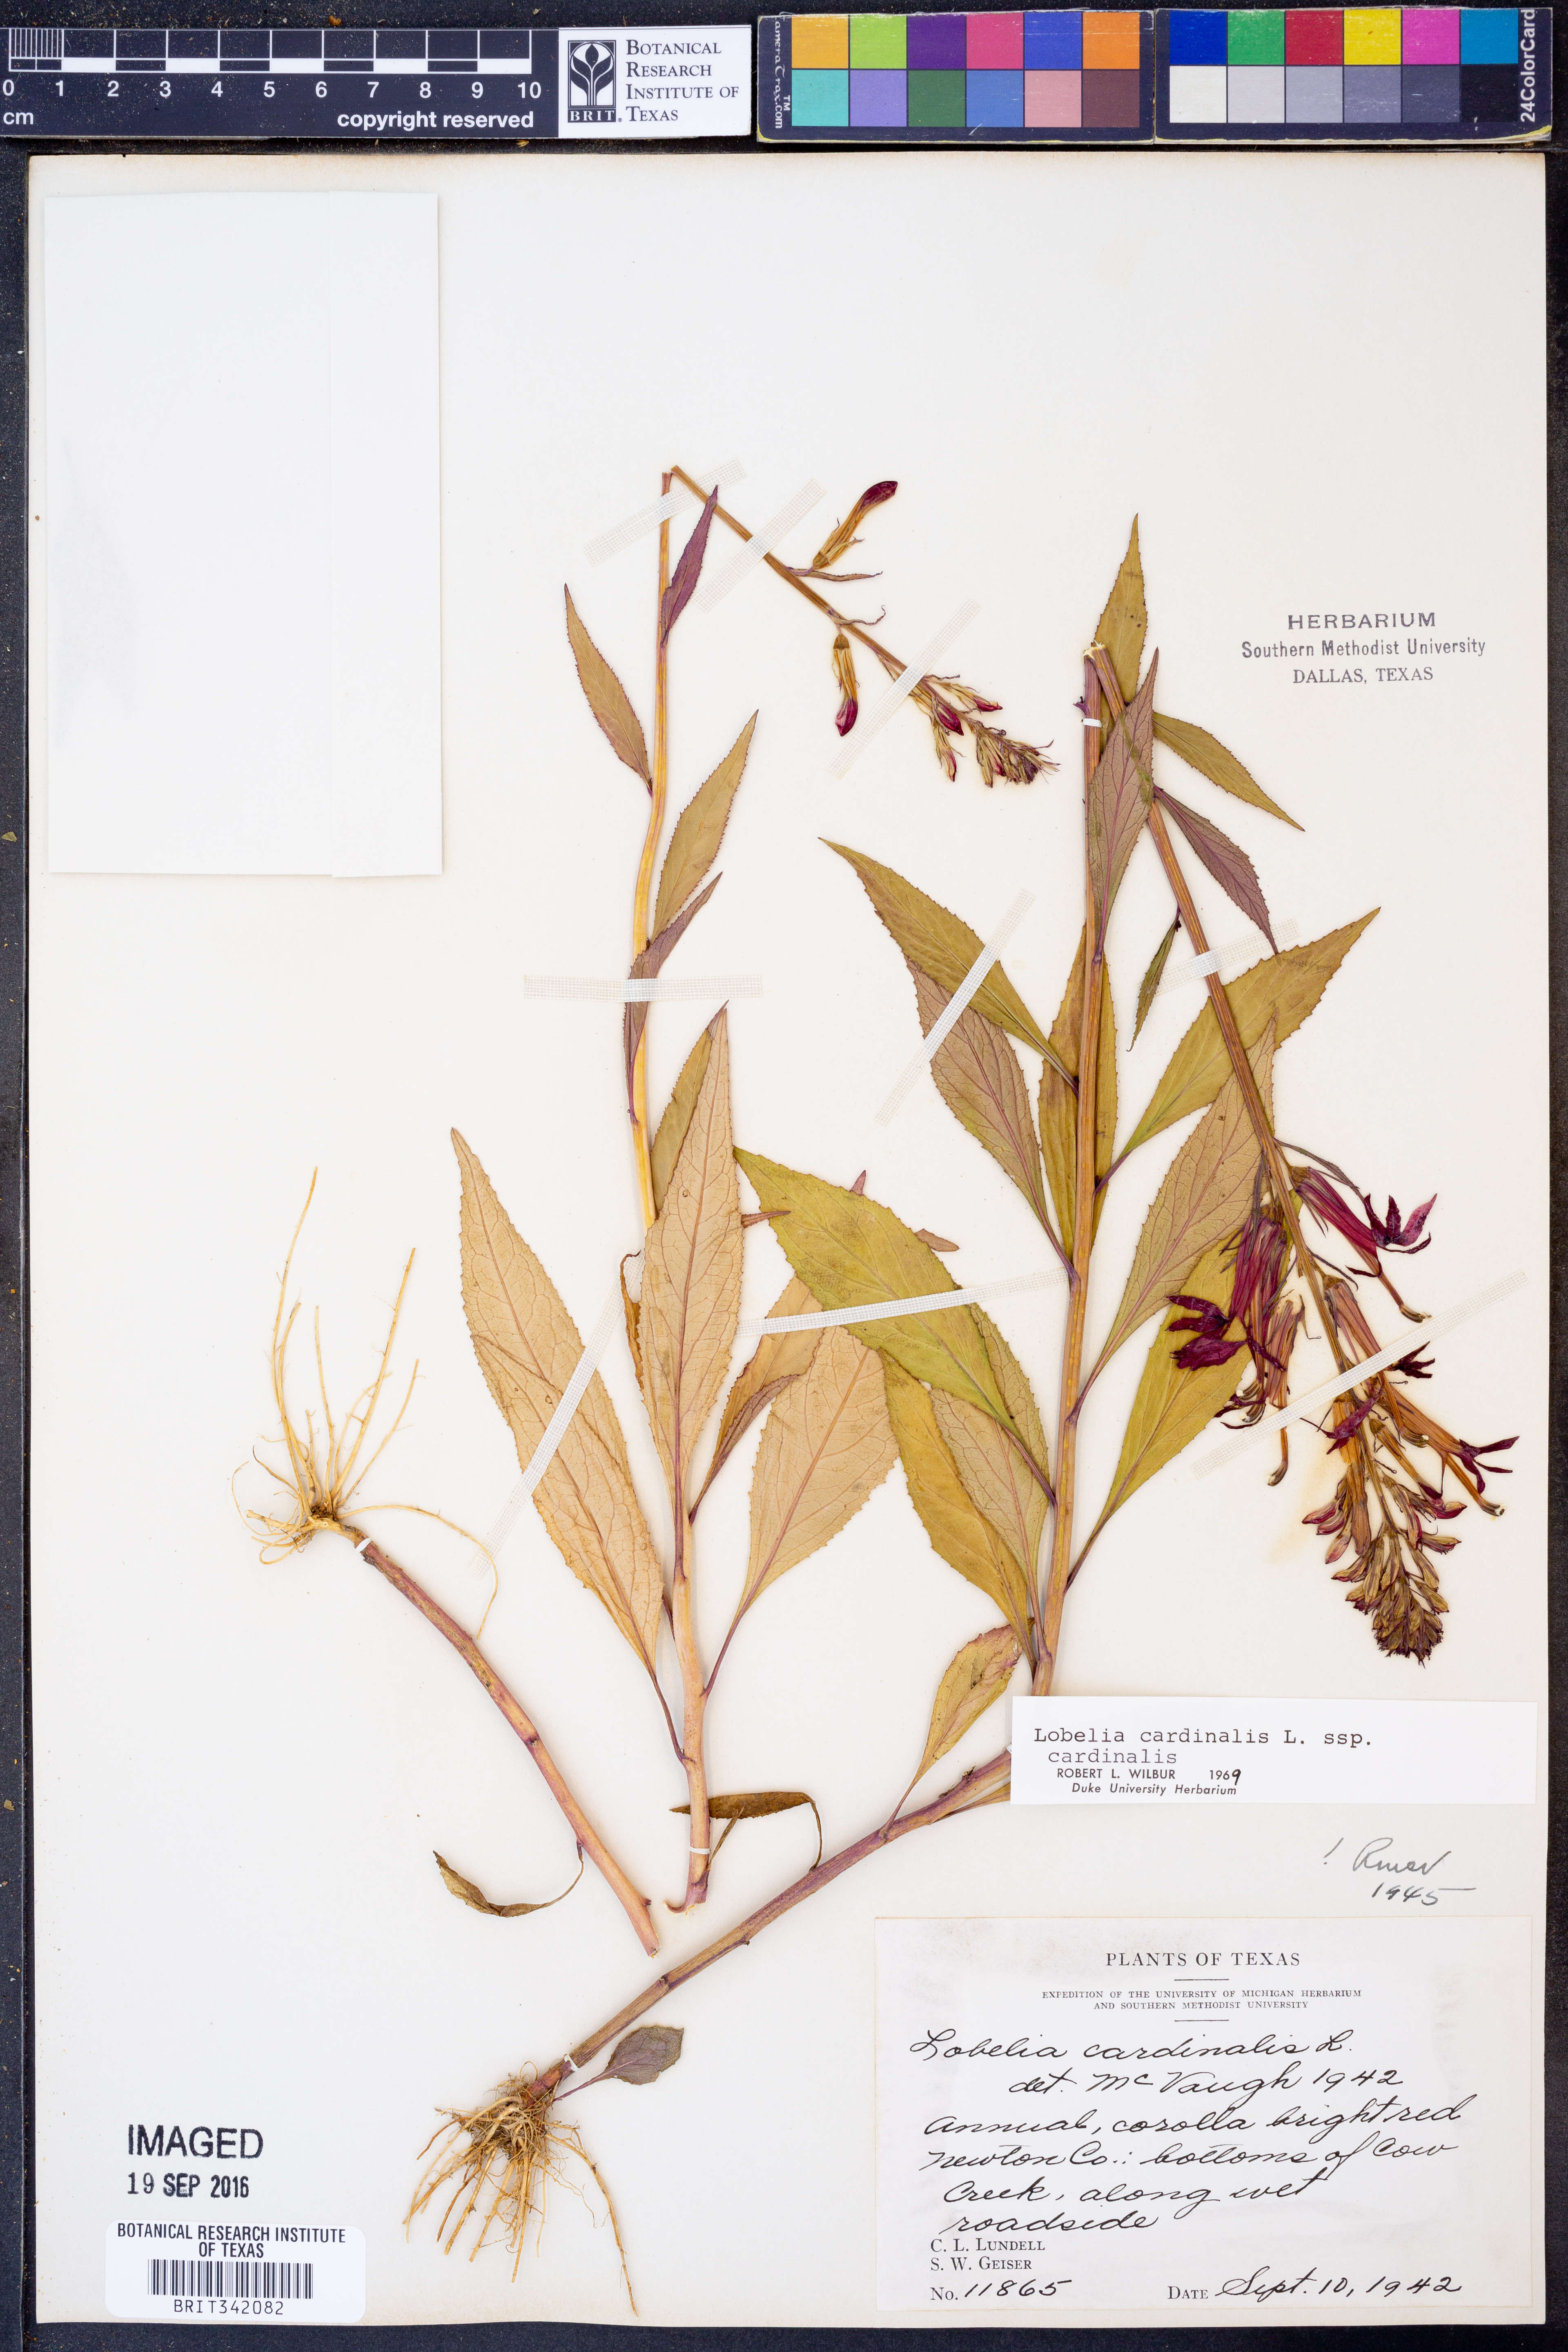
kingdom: Plantae
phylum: Tracheophyta
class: Magnoliopsida
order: Asterales
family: Campanulaceae
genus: Lobelia
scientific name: Lobelia cardinalis
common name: Cardinal flower
